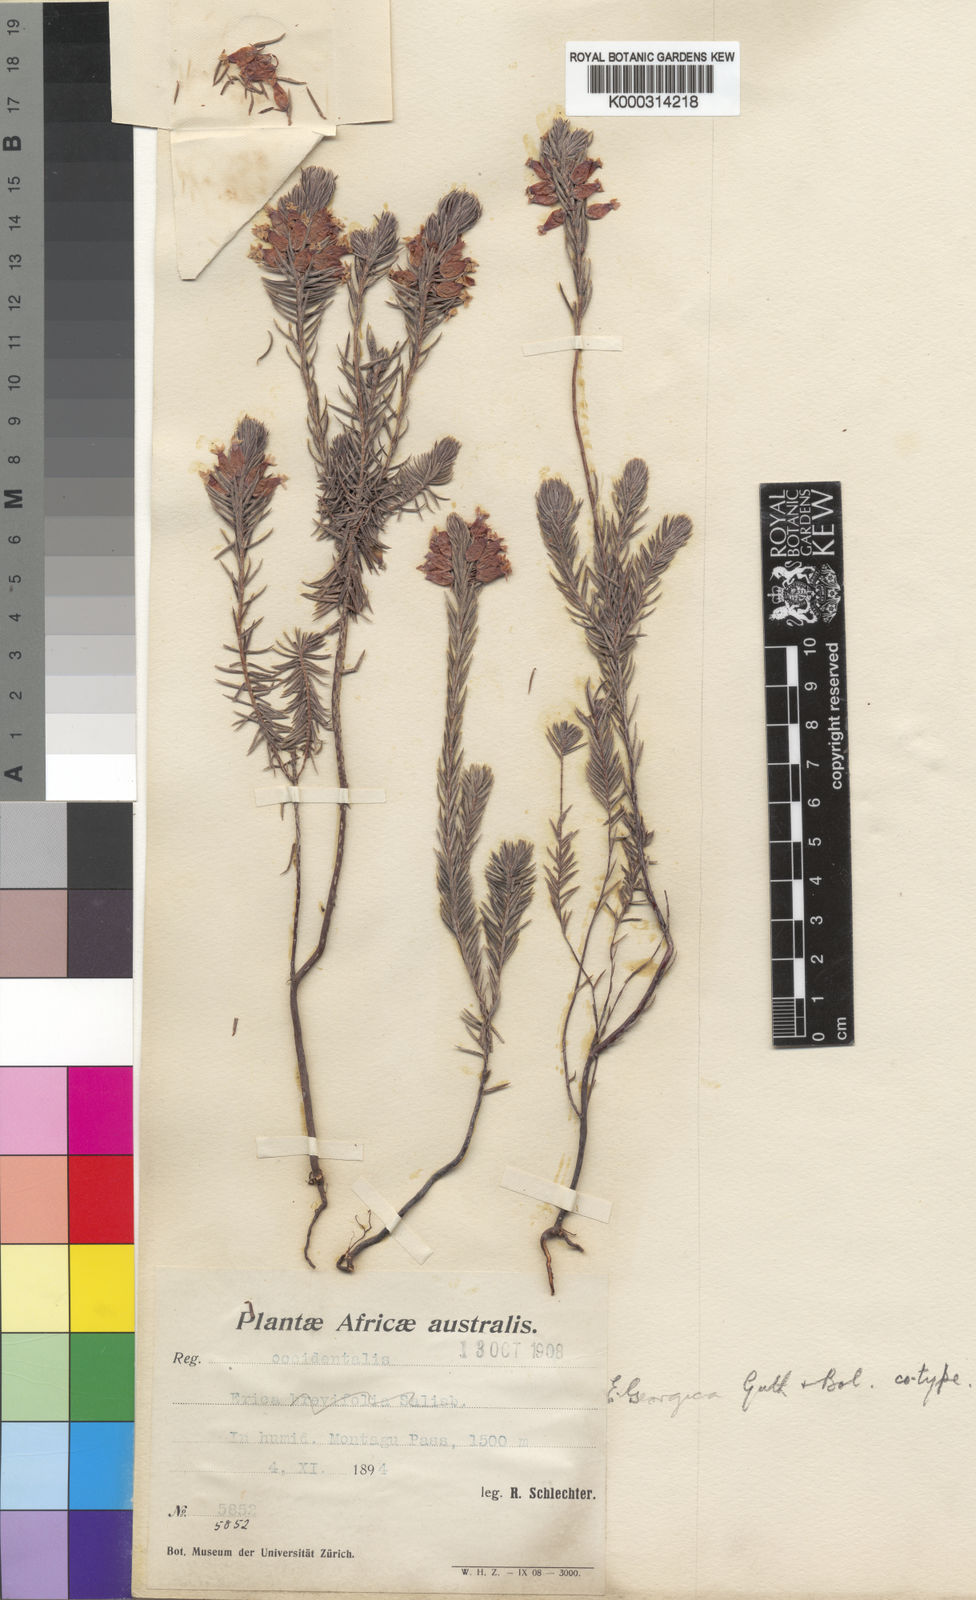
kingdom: Plantae
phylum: Tracheophyta
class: Magnoliopsida
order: Ericales
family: Ericaceae
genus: Erica
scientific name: Erica georgica
